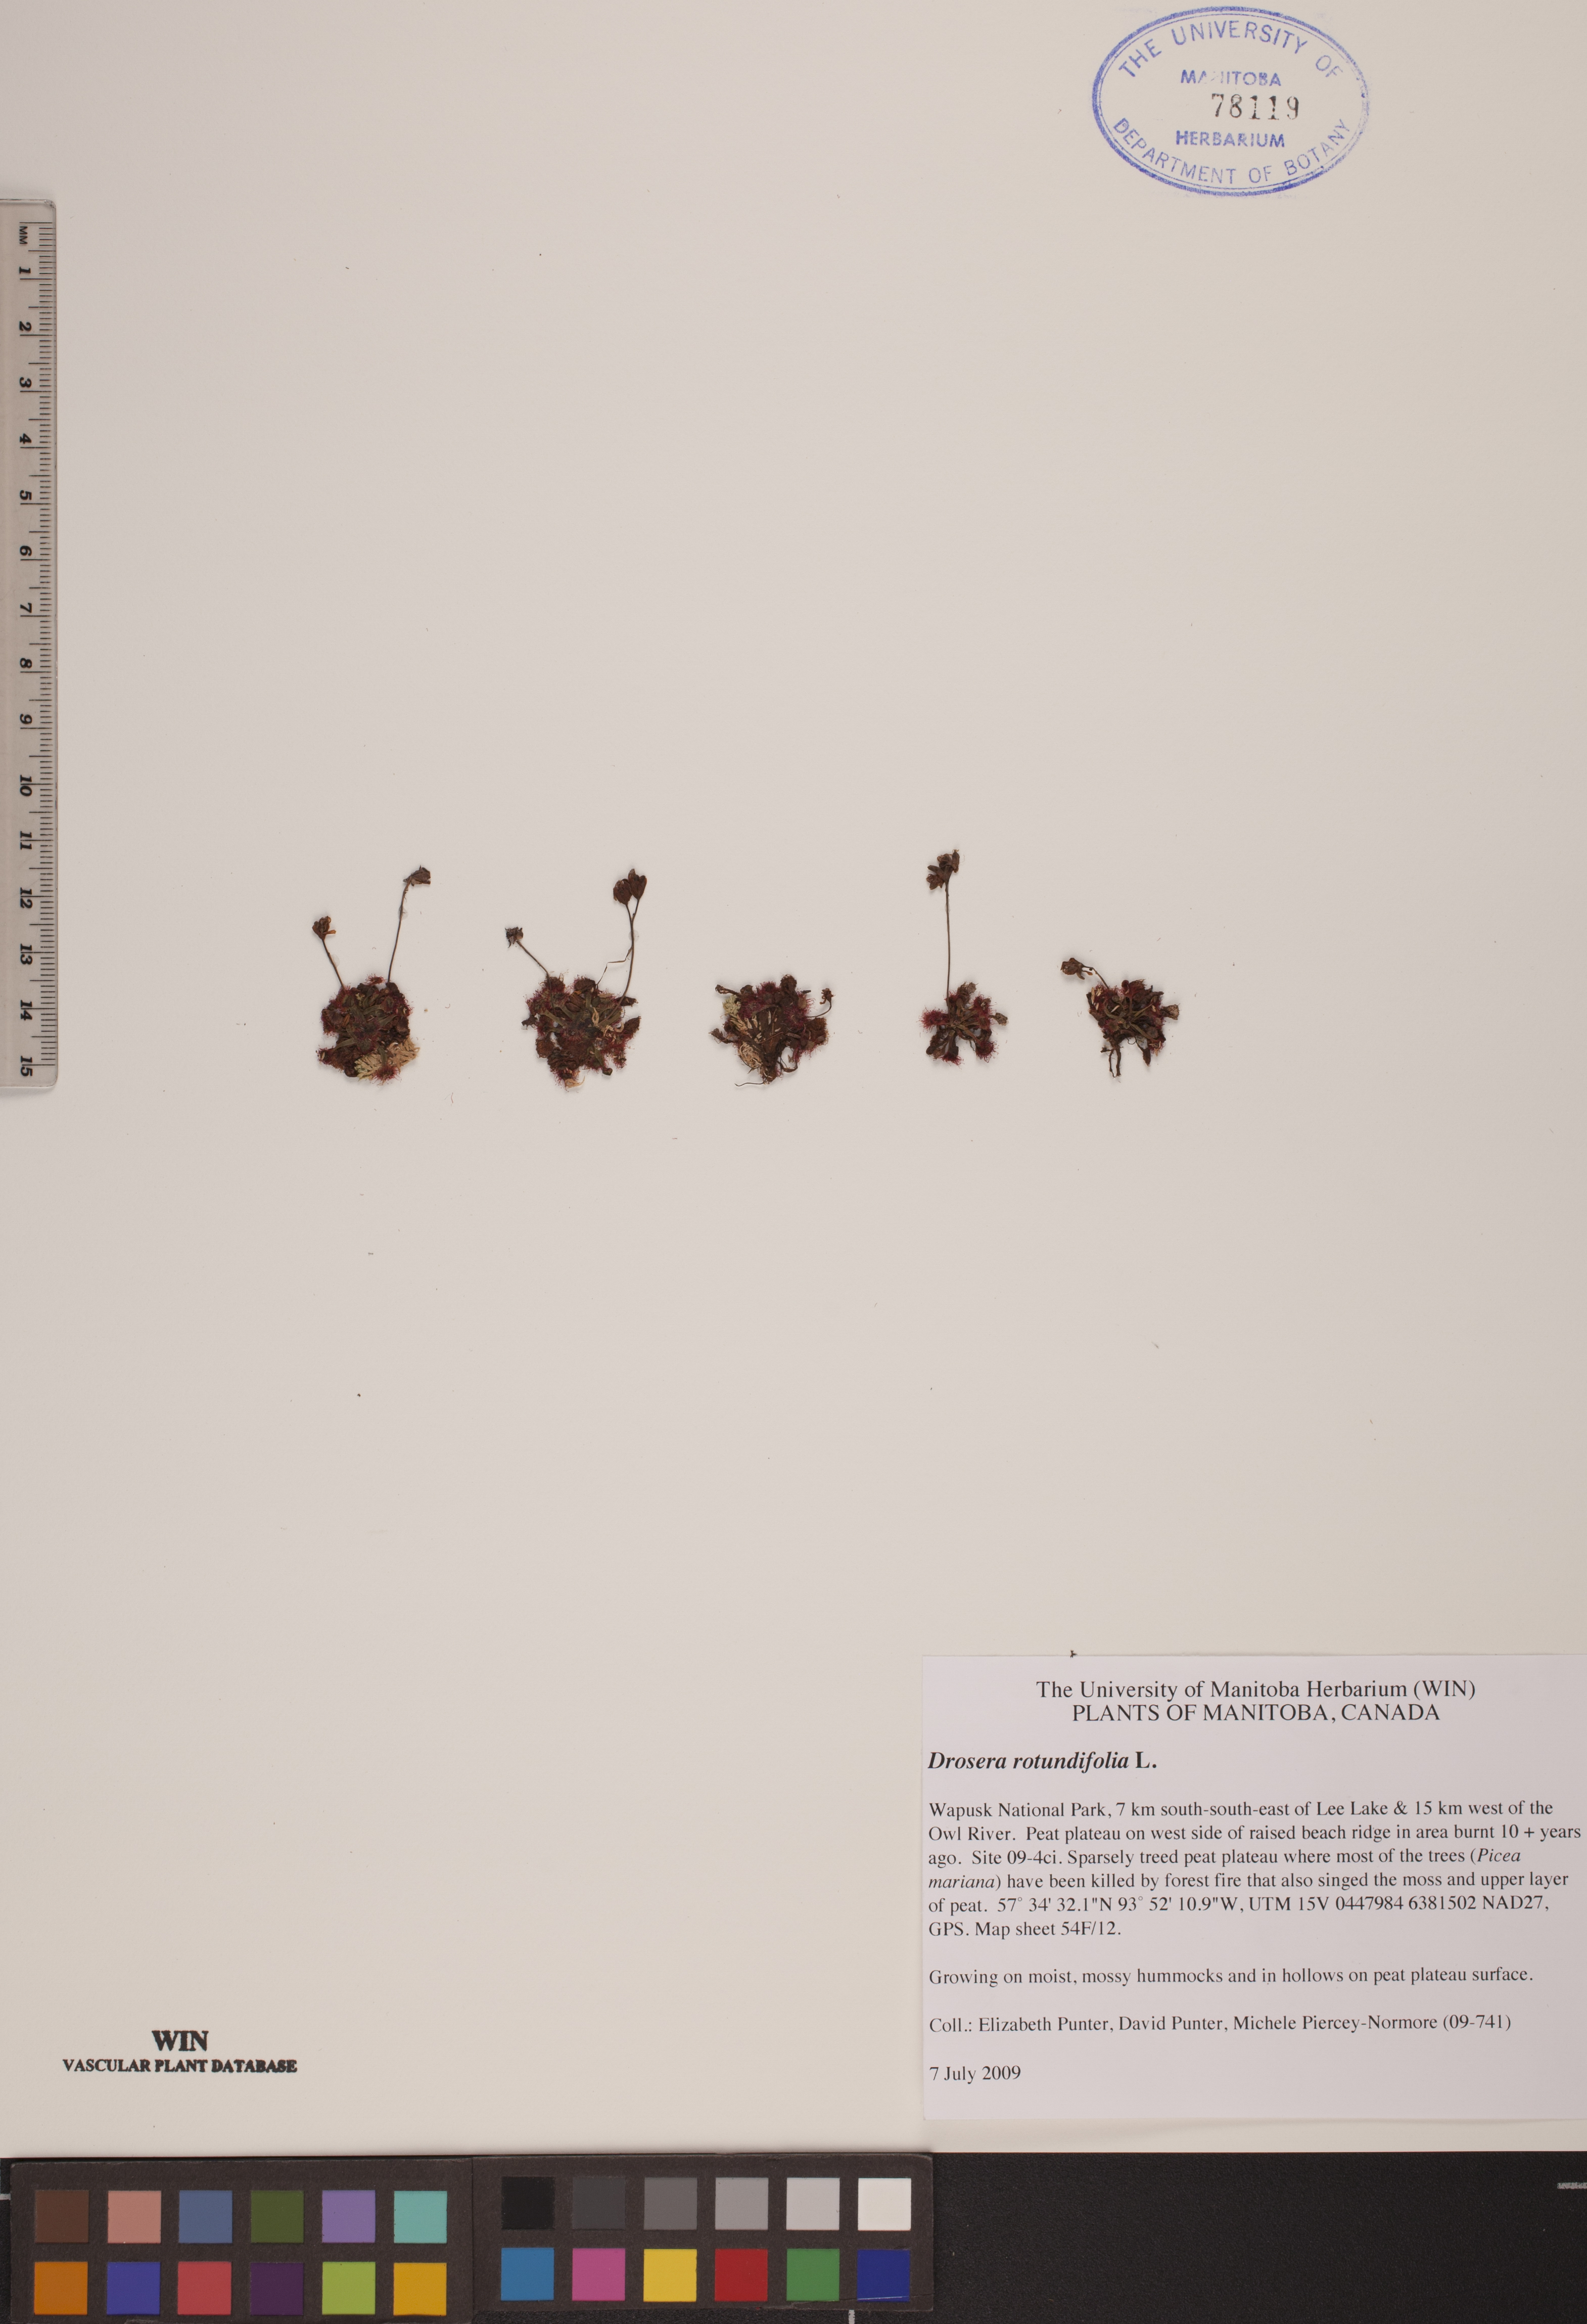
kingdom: Plantae
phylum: Tracheophyta
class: Magnoliopsida
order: Caryophyllales
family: Droseraceae
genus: Drosera
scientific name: Drosera rotundifolia
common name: Round-leaved sundew
